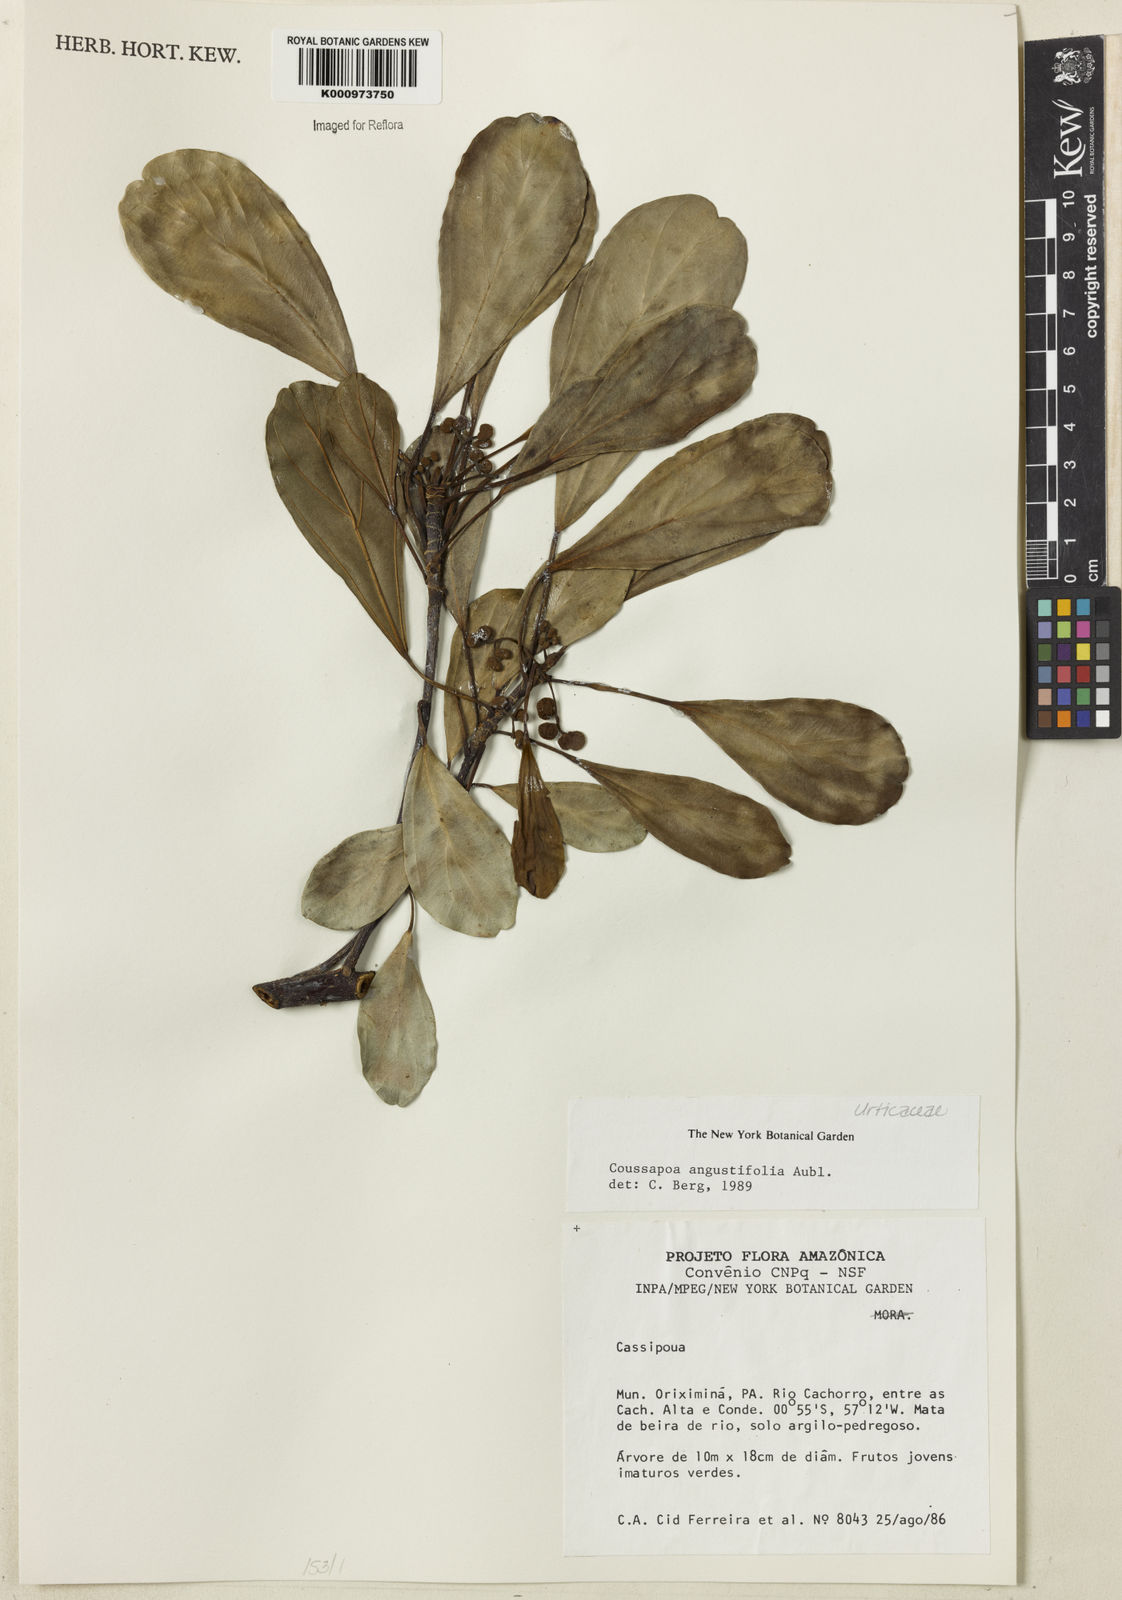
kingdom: Plantae
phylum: Tracheophyta
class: Magnoliopsida
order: Rosales
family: Urticaceae
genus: Coussapoa
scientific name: Coussapoa
